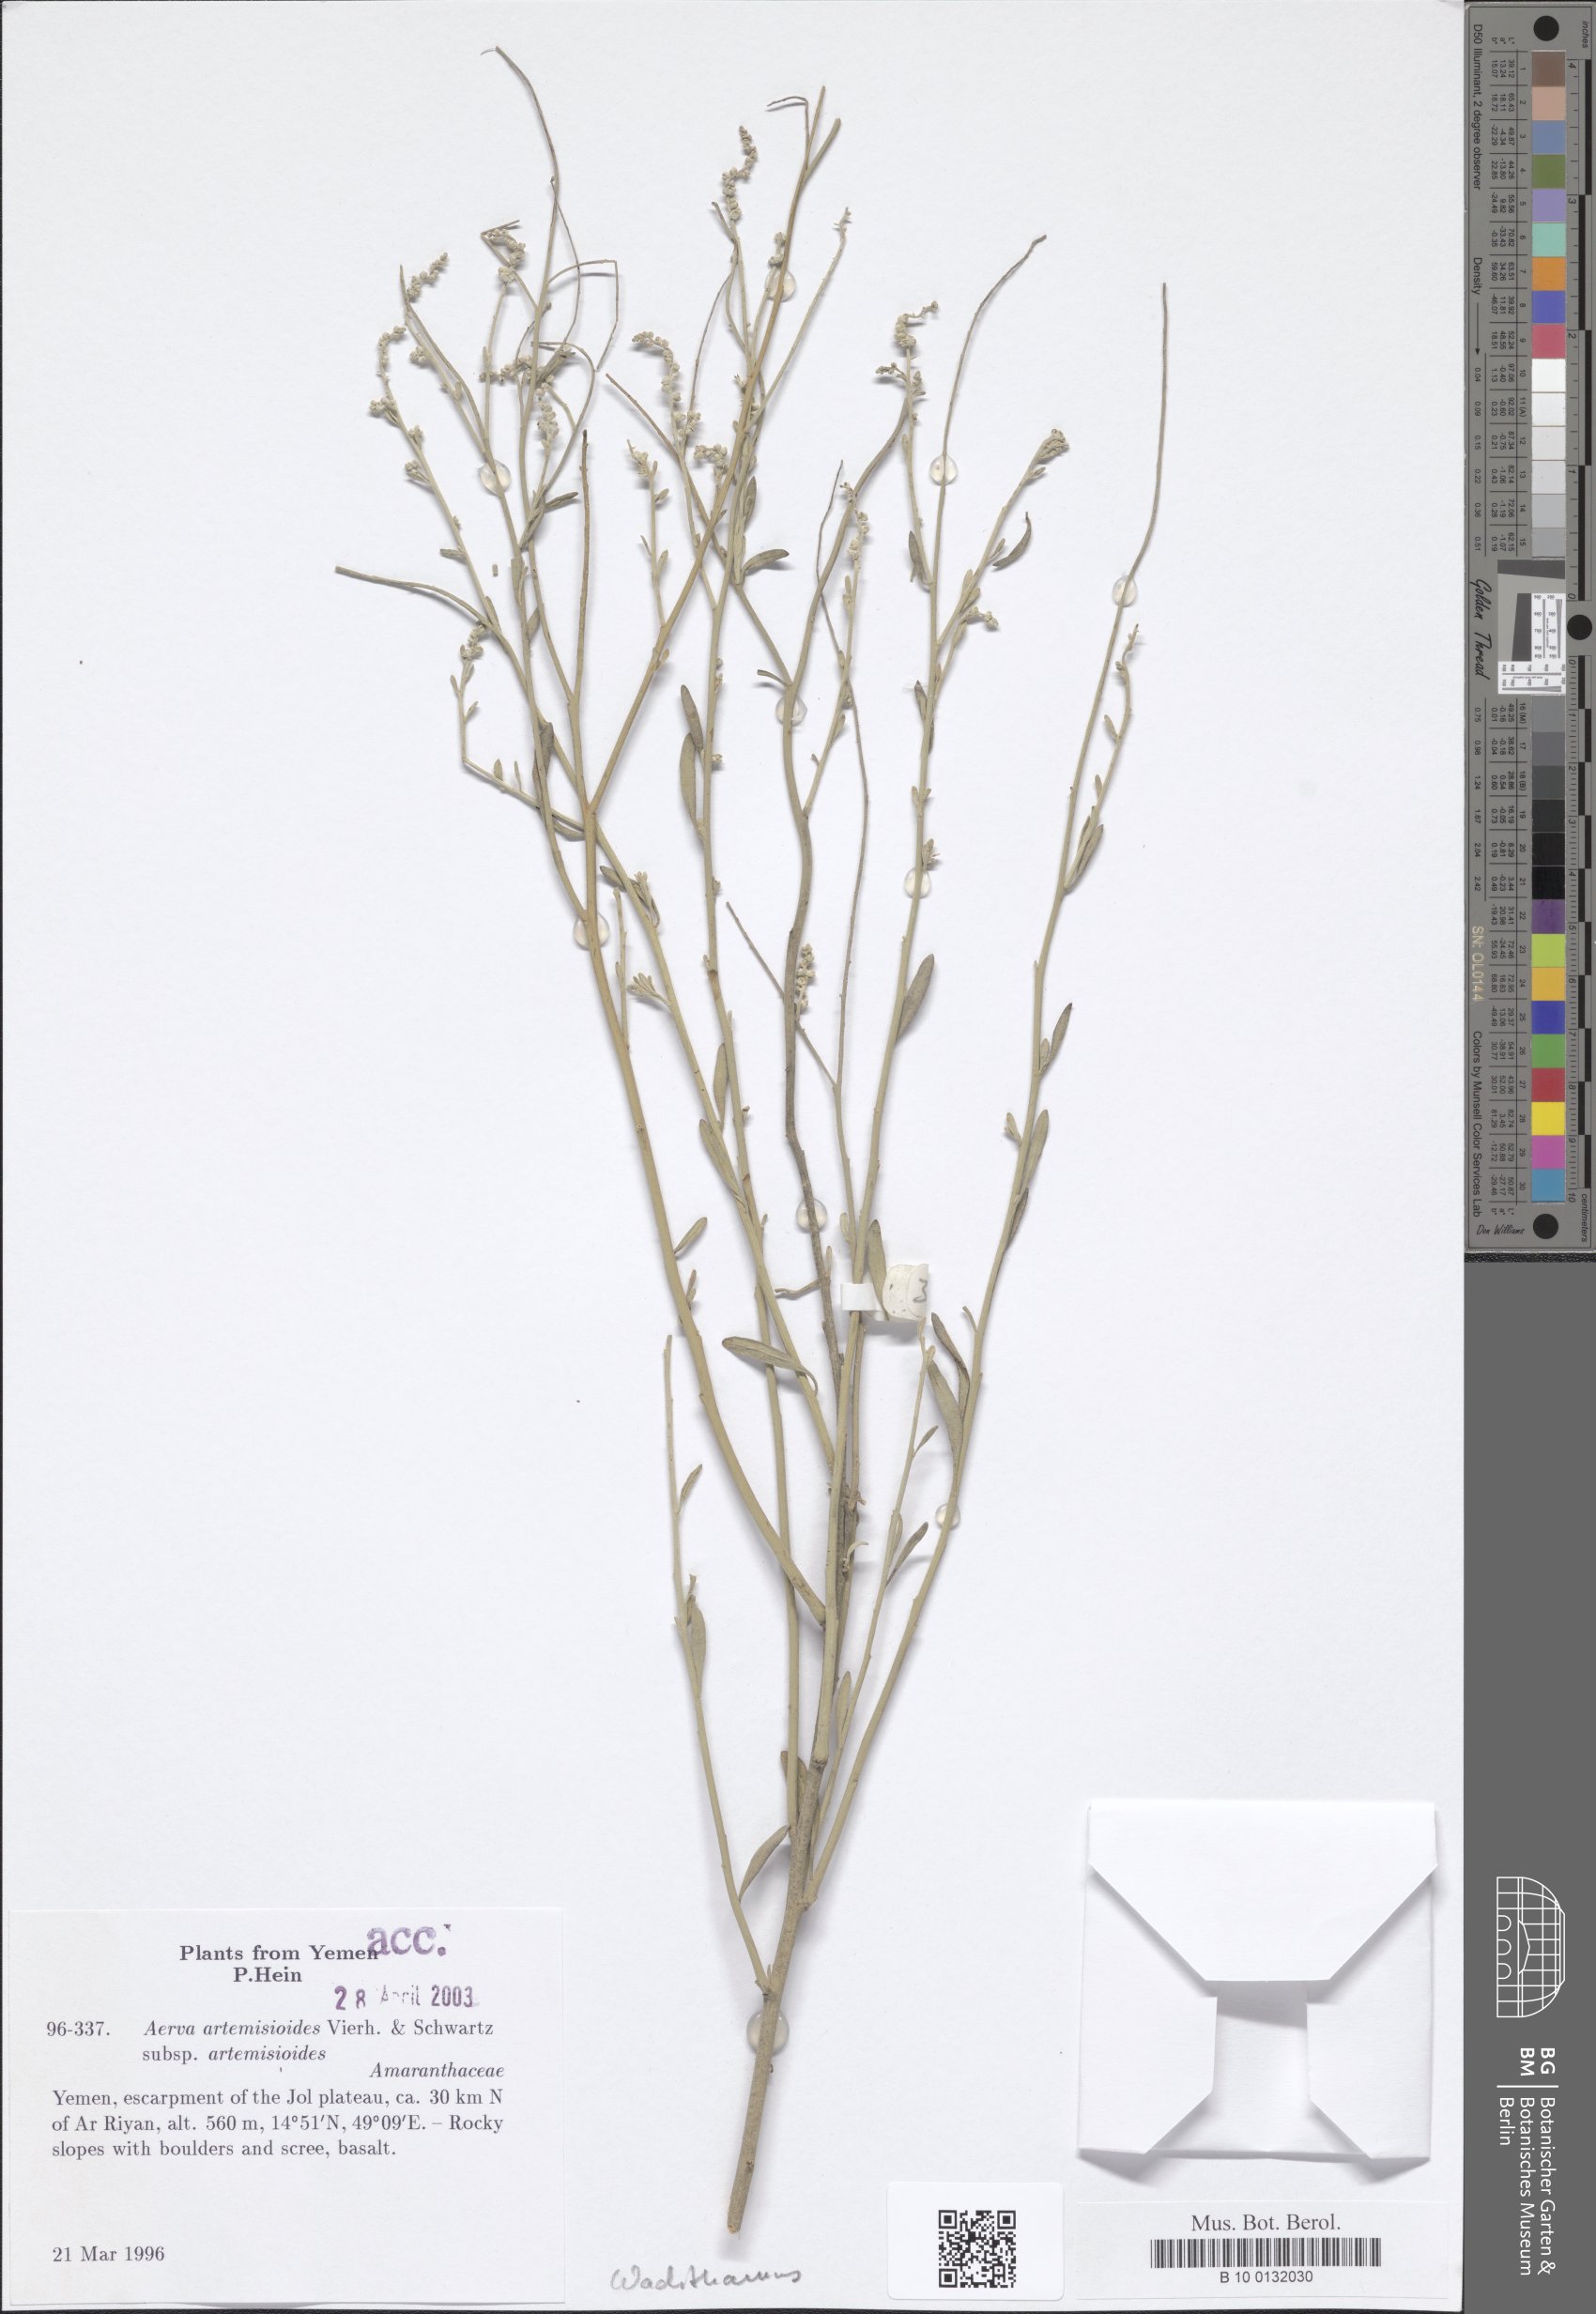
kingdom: Plantae
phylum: Tracheophyta
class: Magnoliopsida
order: Caryophyllales
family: Amaranthaceae
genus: Wadithamnus
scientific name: Wadithamnus artemisioides
